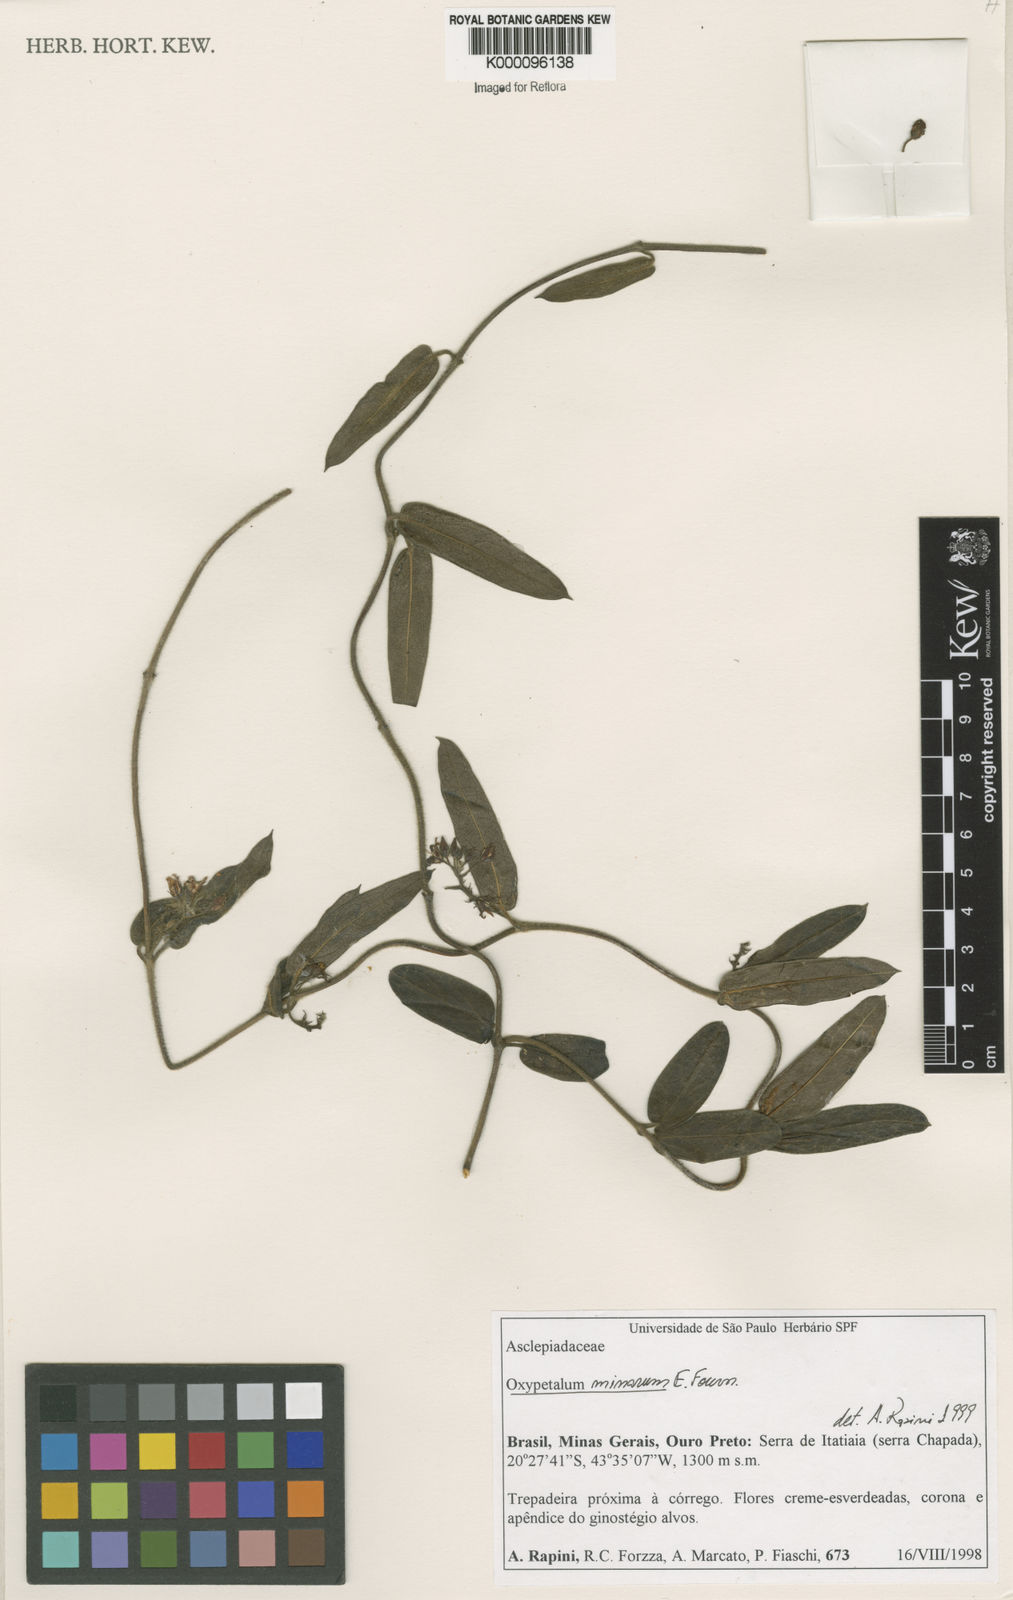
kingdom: Plantae
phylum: Tracheophyta
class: Magnoliopsida
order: Gentianales
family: Apocynaceae
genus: Oxypetalum
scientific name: Oxypetalum minarum
